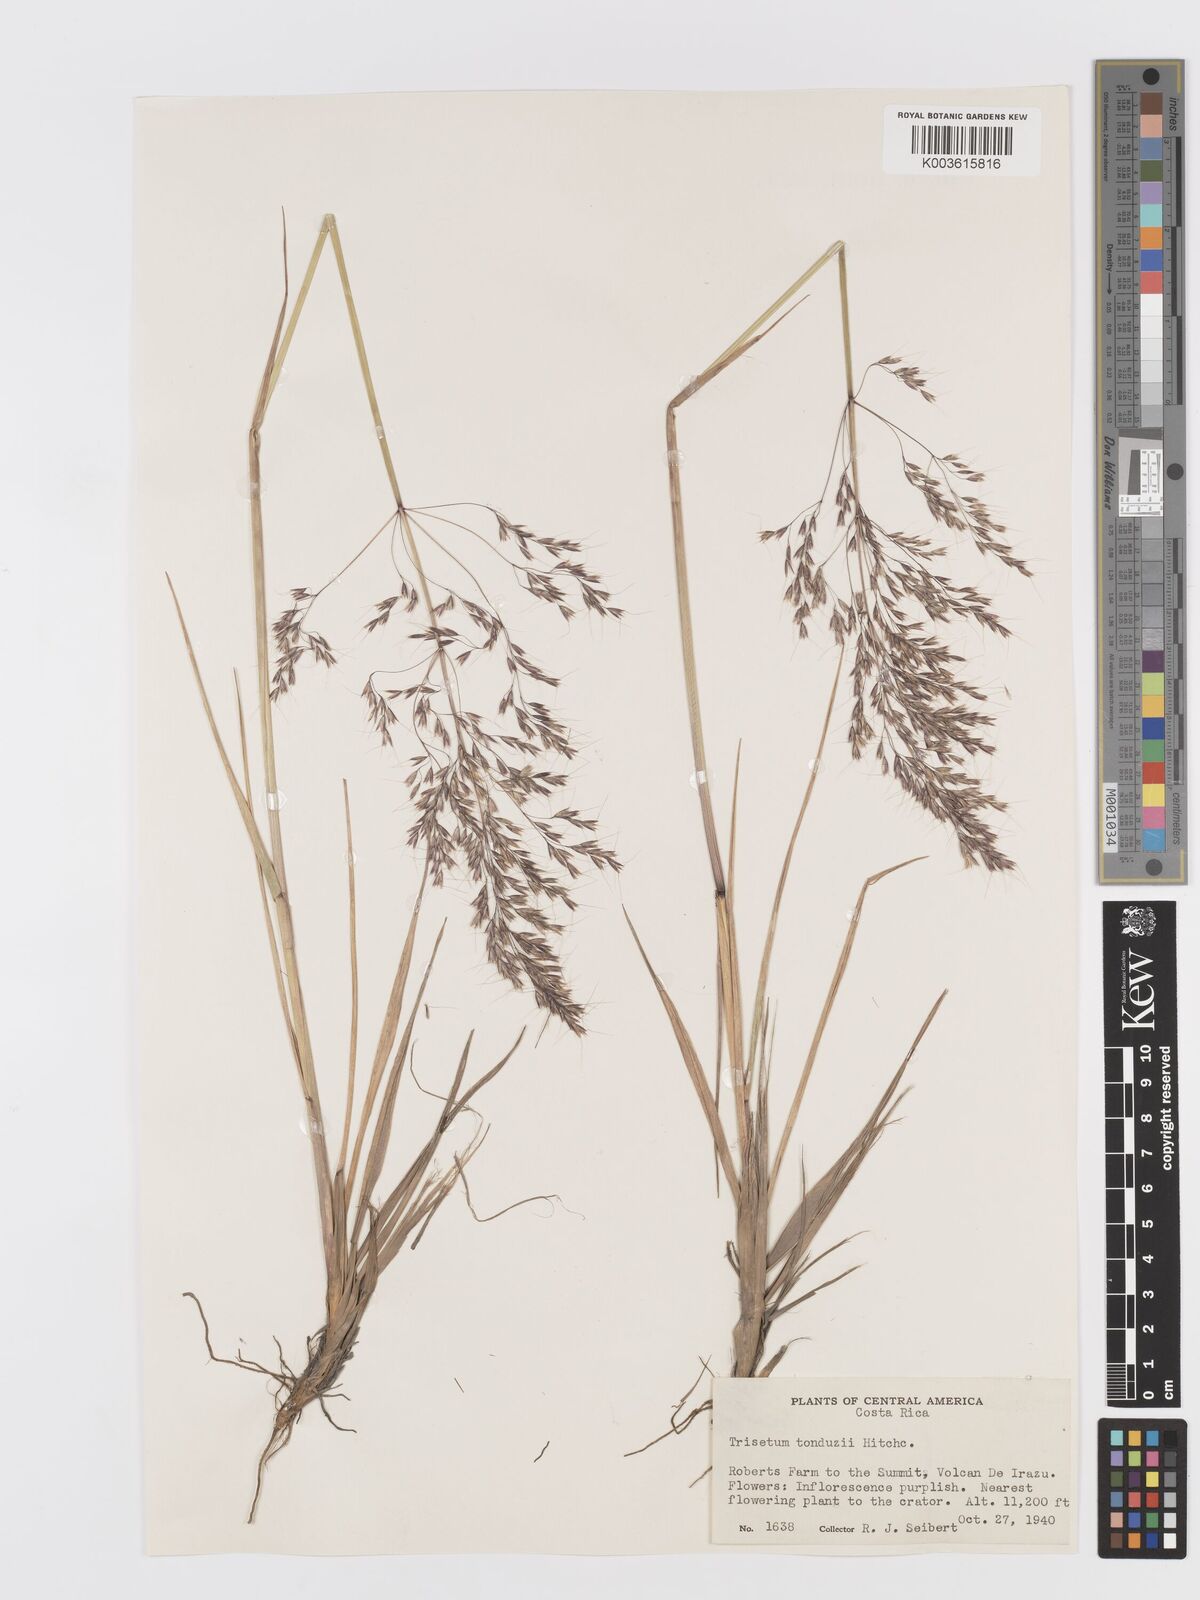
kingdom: Plantae
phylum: Tracheophyta
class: Liliopsida
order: Poales
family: Poaceae
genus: Peyritschia
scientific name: Peyritschia tonduzii
